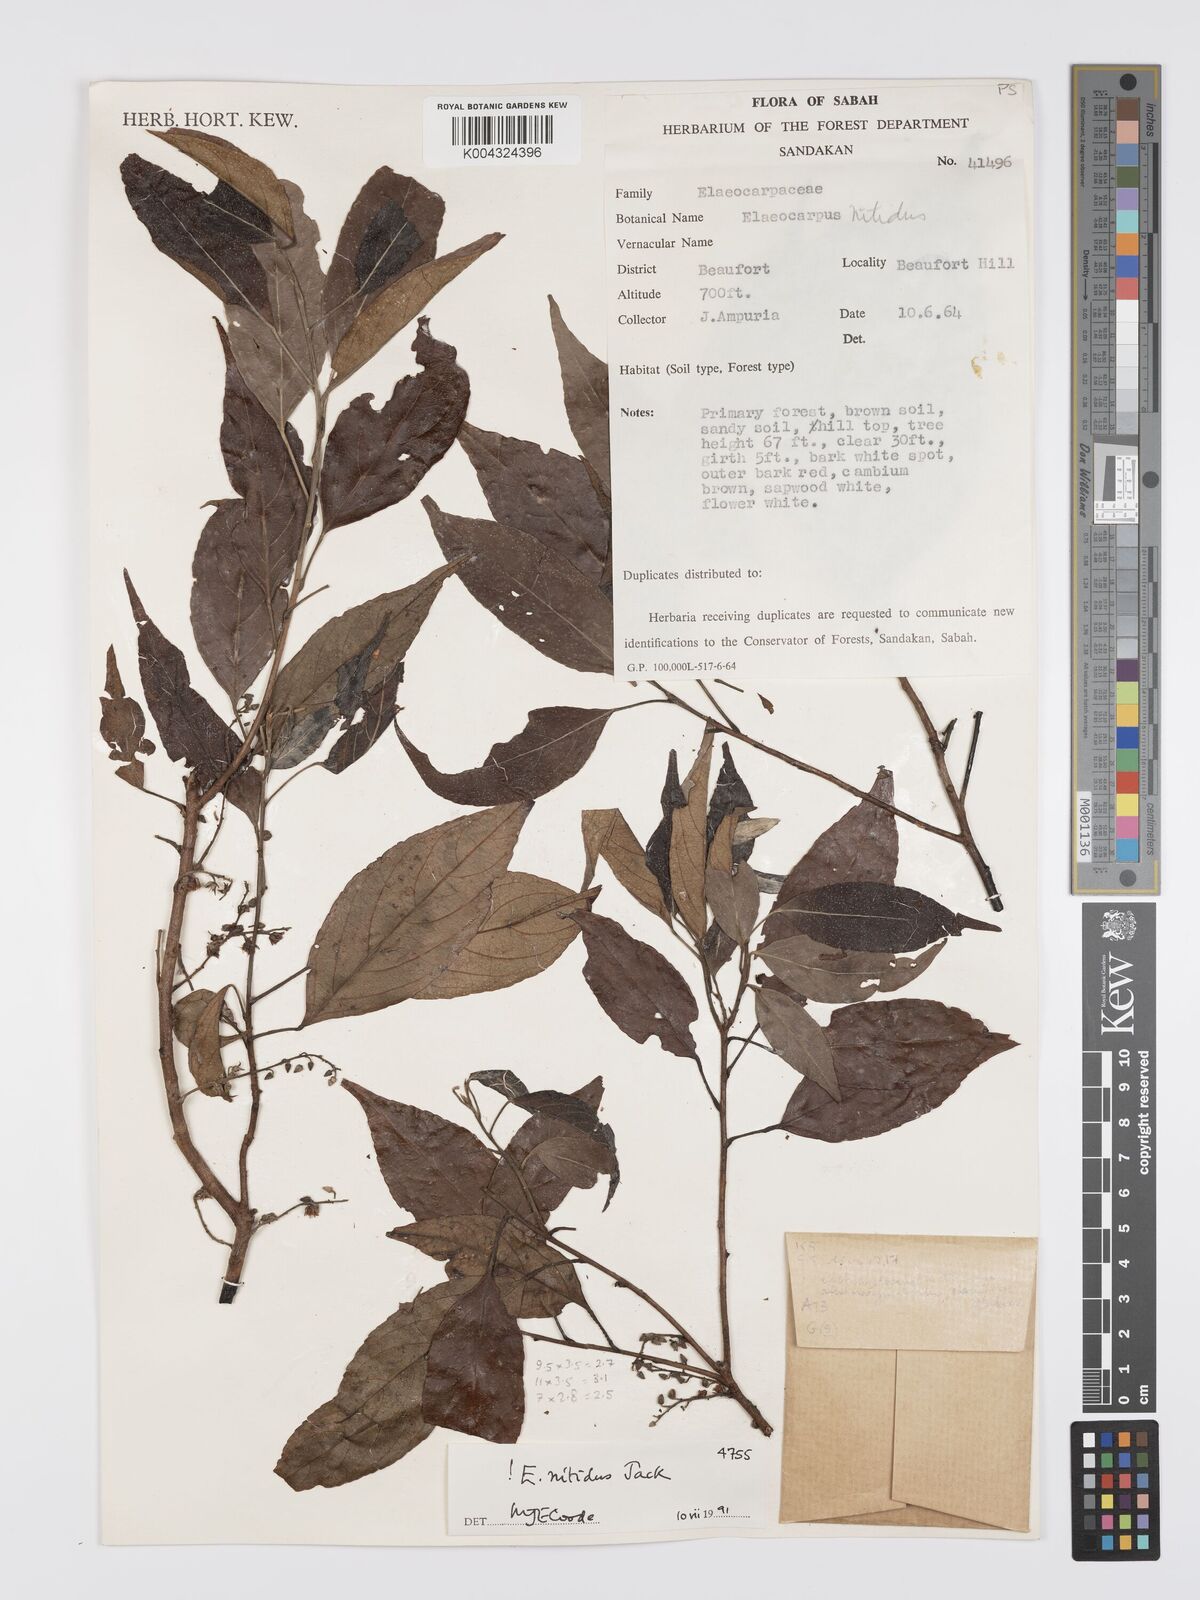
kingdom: Plantae
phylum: Tracheophyta
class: Magnoliopsida
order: Oxalidales
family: Elaeocarpaceae
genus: Elaeocarpus
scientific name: Elaeocarpus nitidus
